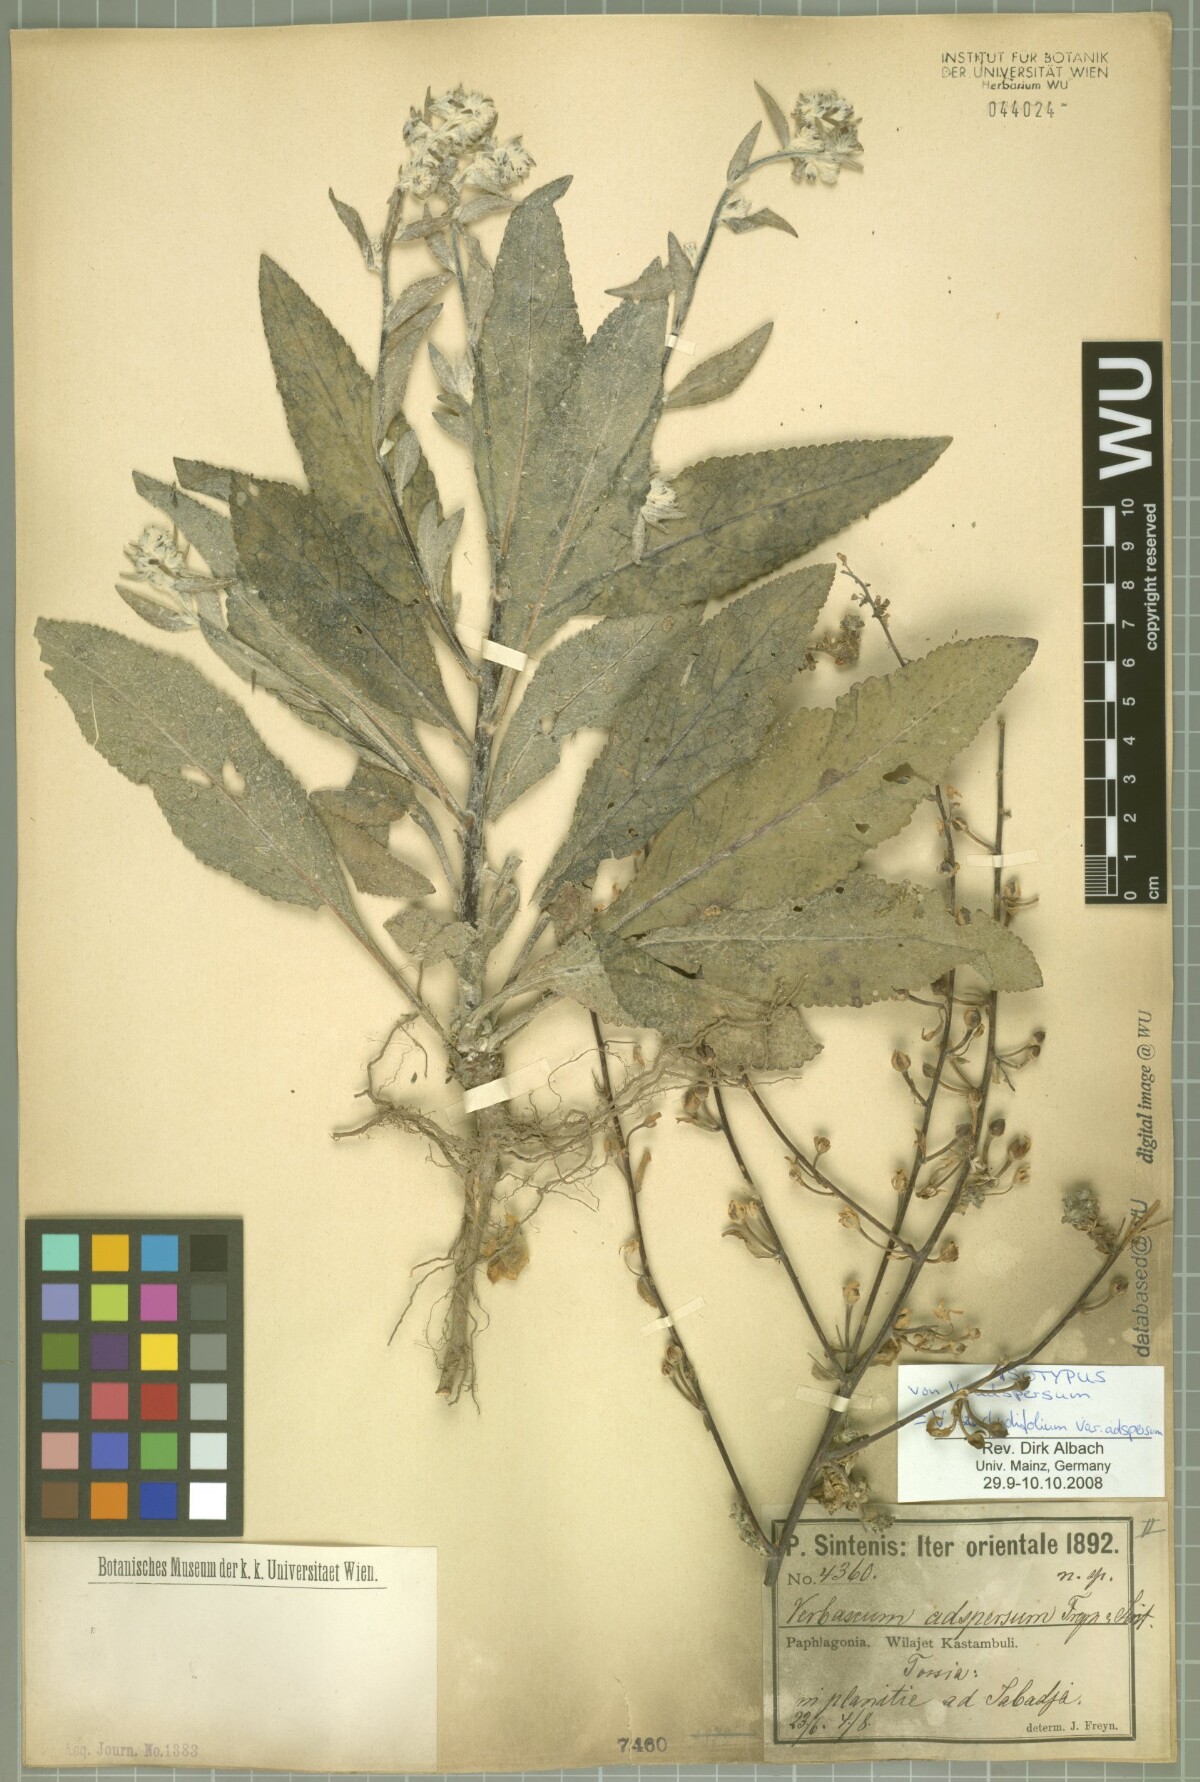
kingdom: Plantae
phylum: Tracheophyta
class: Magnoliopsida
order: Lamiales
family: Scrophulariaceae
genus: Verbascum
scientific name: Verbascum stachydifolium
